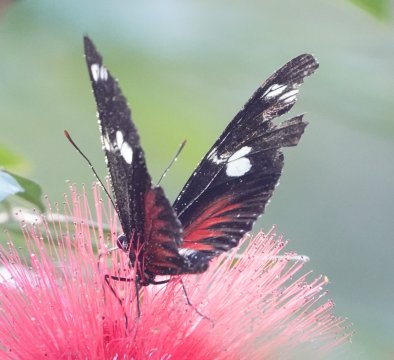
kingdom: Animalia
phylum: Arthropoda
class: Insecta
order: Lepidoptera
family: Nymphalidae
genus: Heliconius
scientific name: Heliconius doris
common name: Doris Longwing
